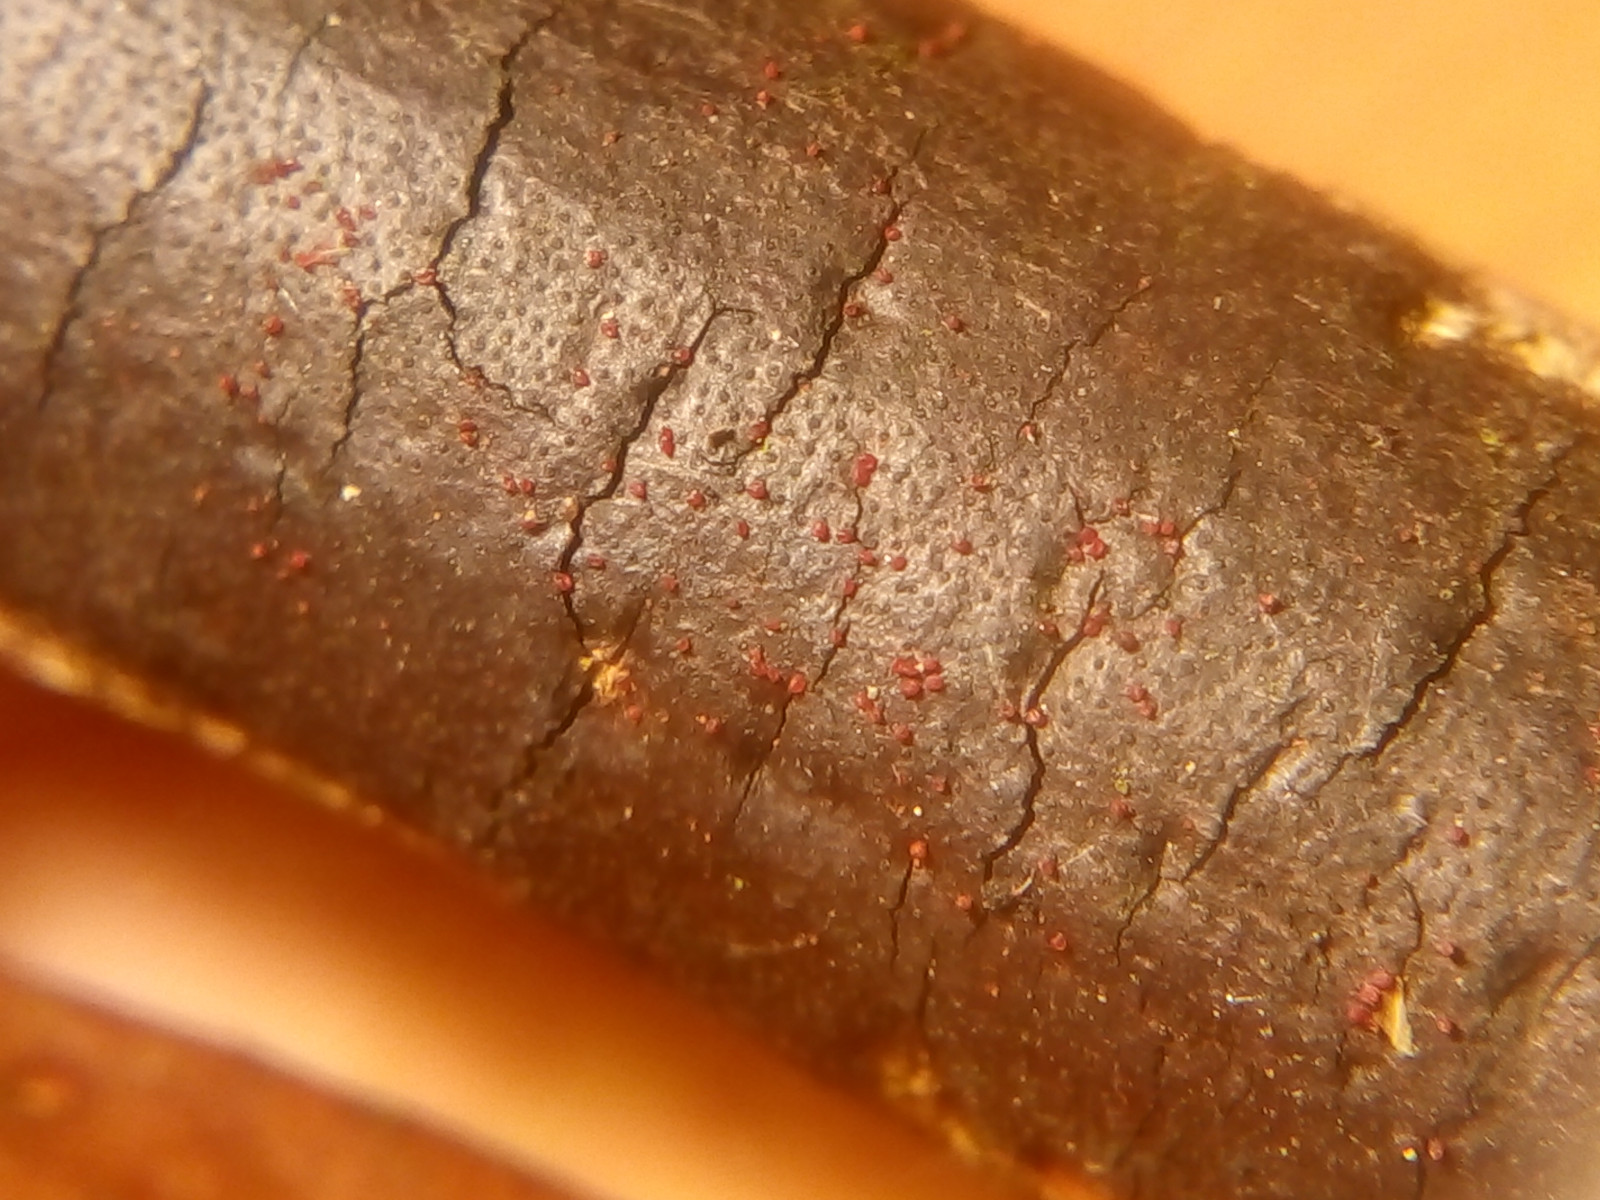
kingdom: Fungi
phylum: Ascomycota
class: Sordariomycetes
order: Hypocreales
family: Nectriaceae
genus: Dialonectria
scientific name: Dialonectria episphaeria
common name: kulskorpe-cinnobersvamp
